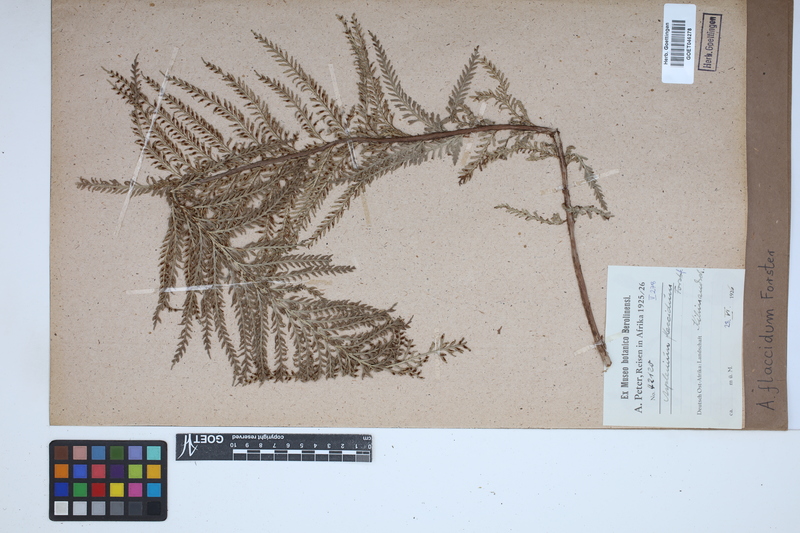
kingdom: Plantae
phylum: Tracheophyta
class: Polypodiopsida
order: Polypodiales
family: Aspleniaceae
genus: Asplenium
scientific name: Asplenium flaccidum
